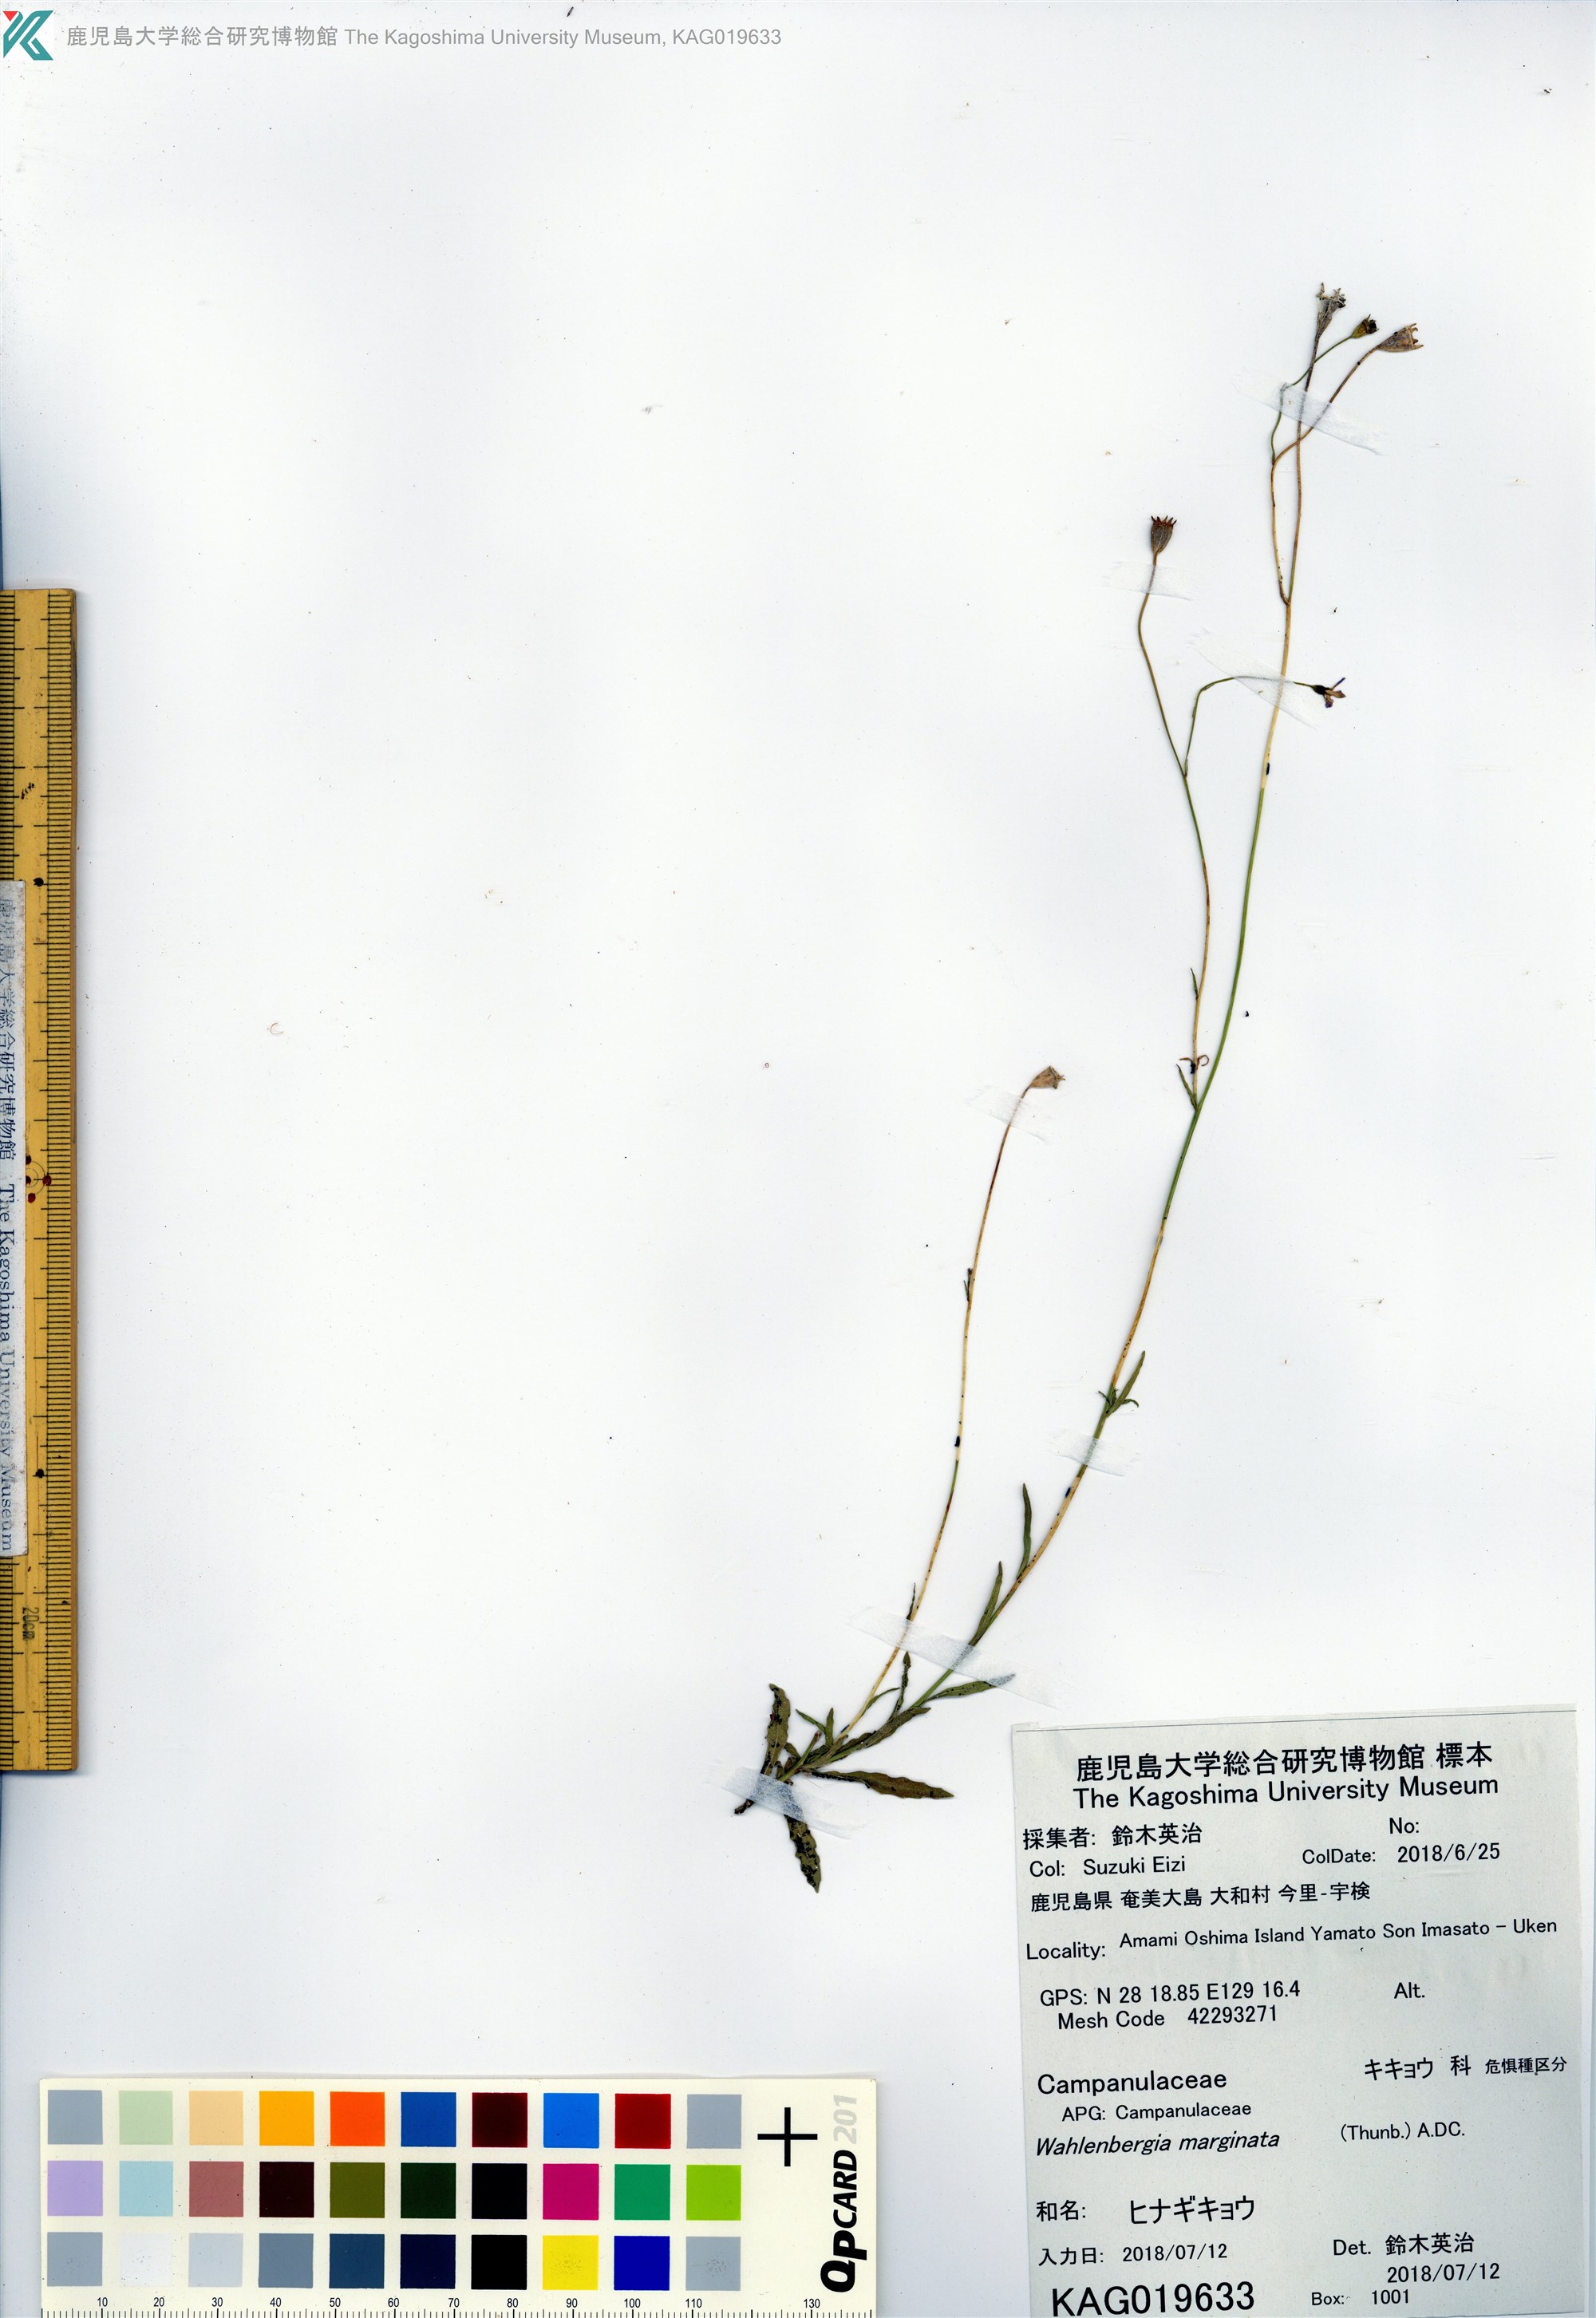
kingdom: Plantae
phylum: Tracheophyta
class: Magnoliopsida
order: Asterales
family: Campanulaceae
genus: Wahlenbergia
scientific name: Wahlenbergia marginata
